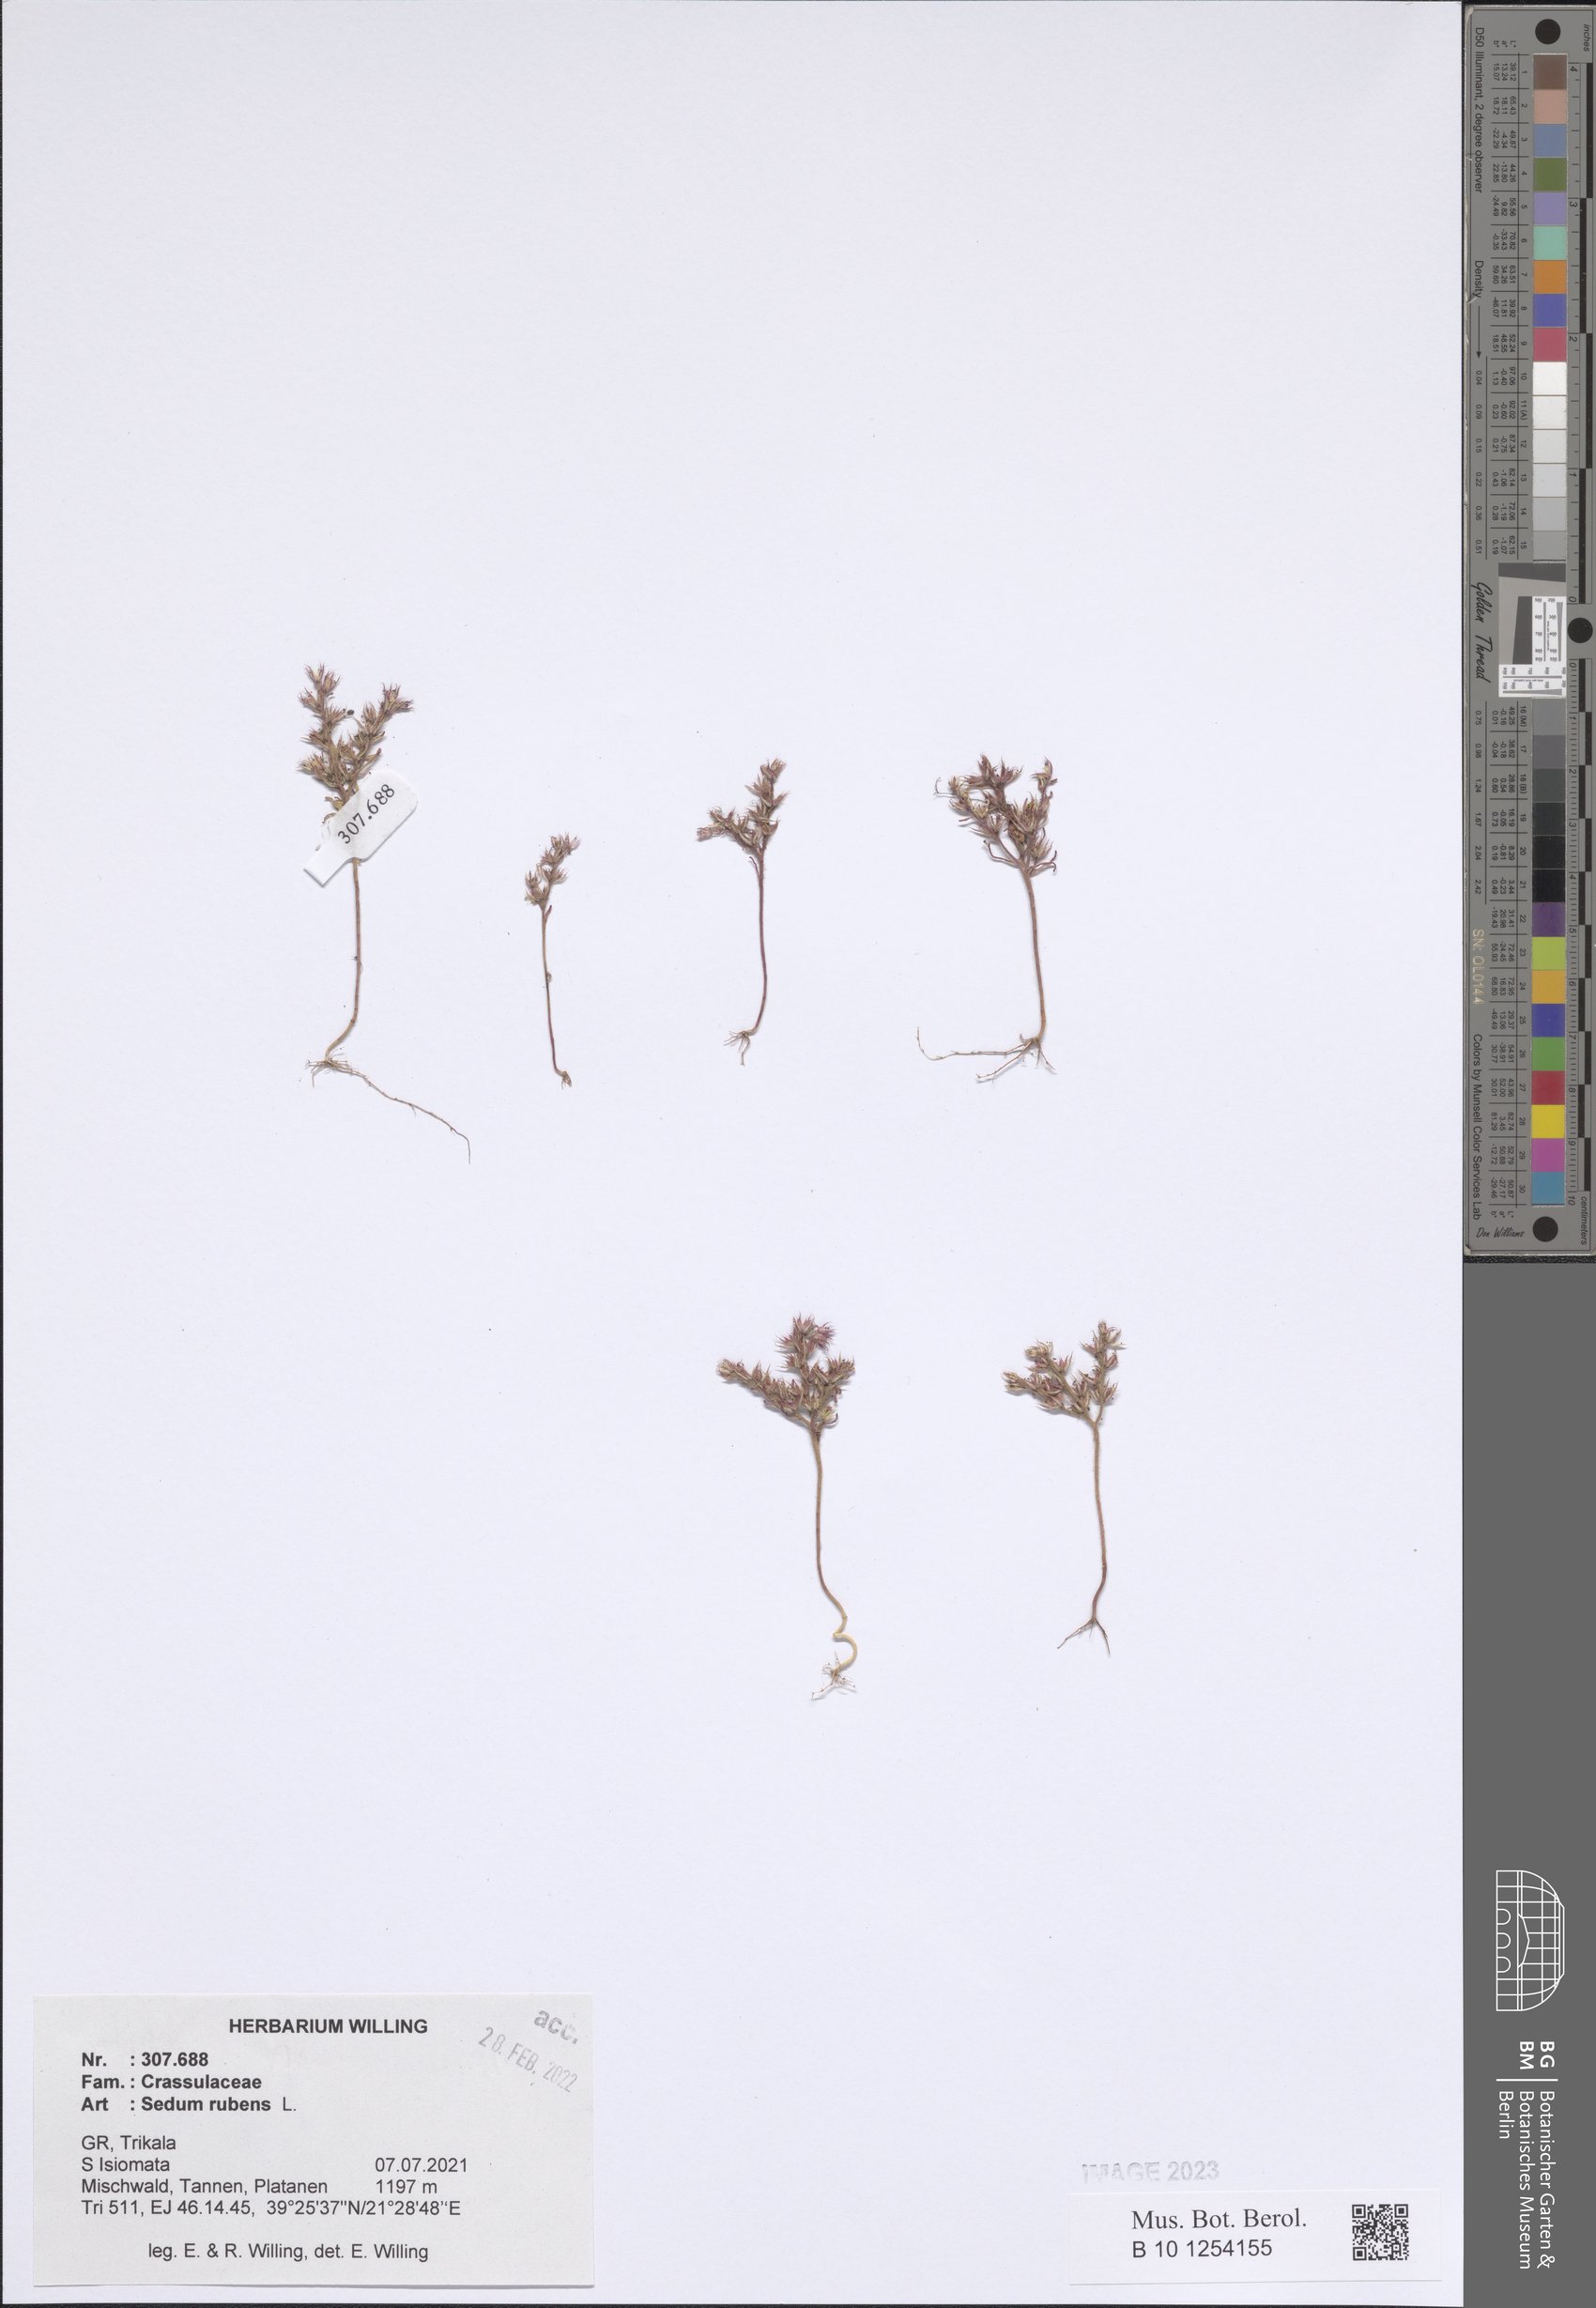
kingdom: Plantae
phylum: Tracheophyta
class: Magnoliopsida
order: Saxifragales
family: Crassulaceae
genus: Sedum
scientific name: Sedum rubens
